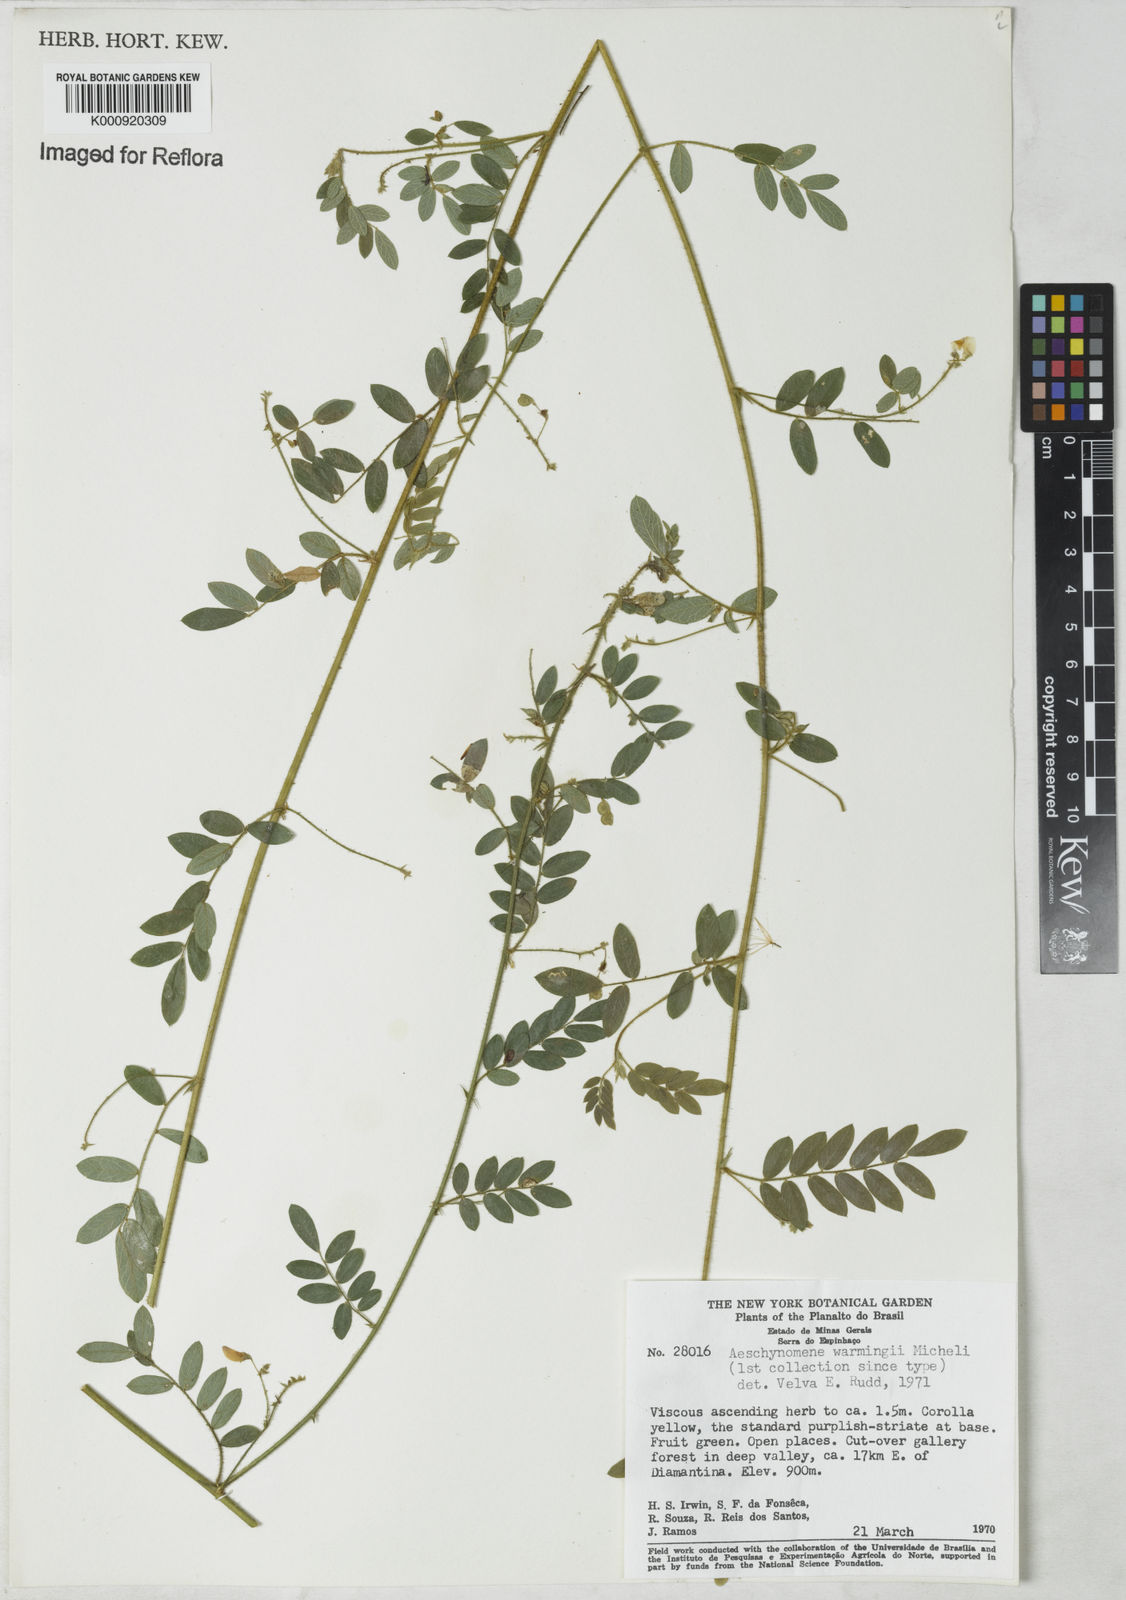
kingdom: Plantae
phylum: Tracheophyta
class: Magnoliopsida
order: Fabales
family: Fabaceae
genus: Ctenodon
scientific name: Ctenodon warmingii
